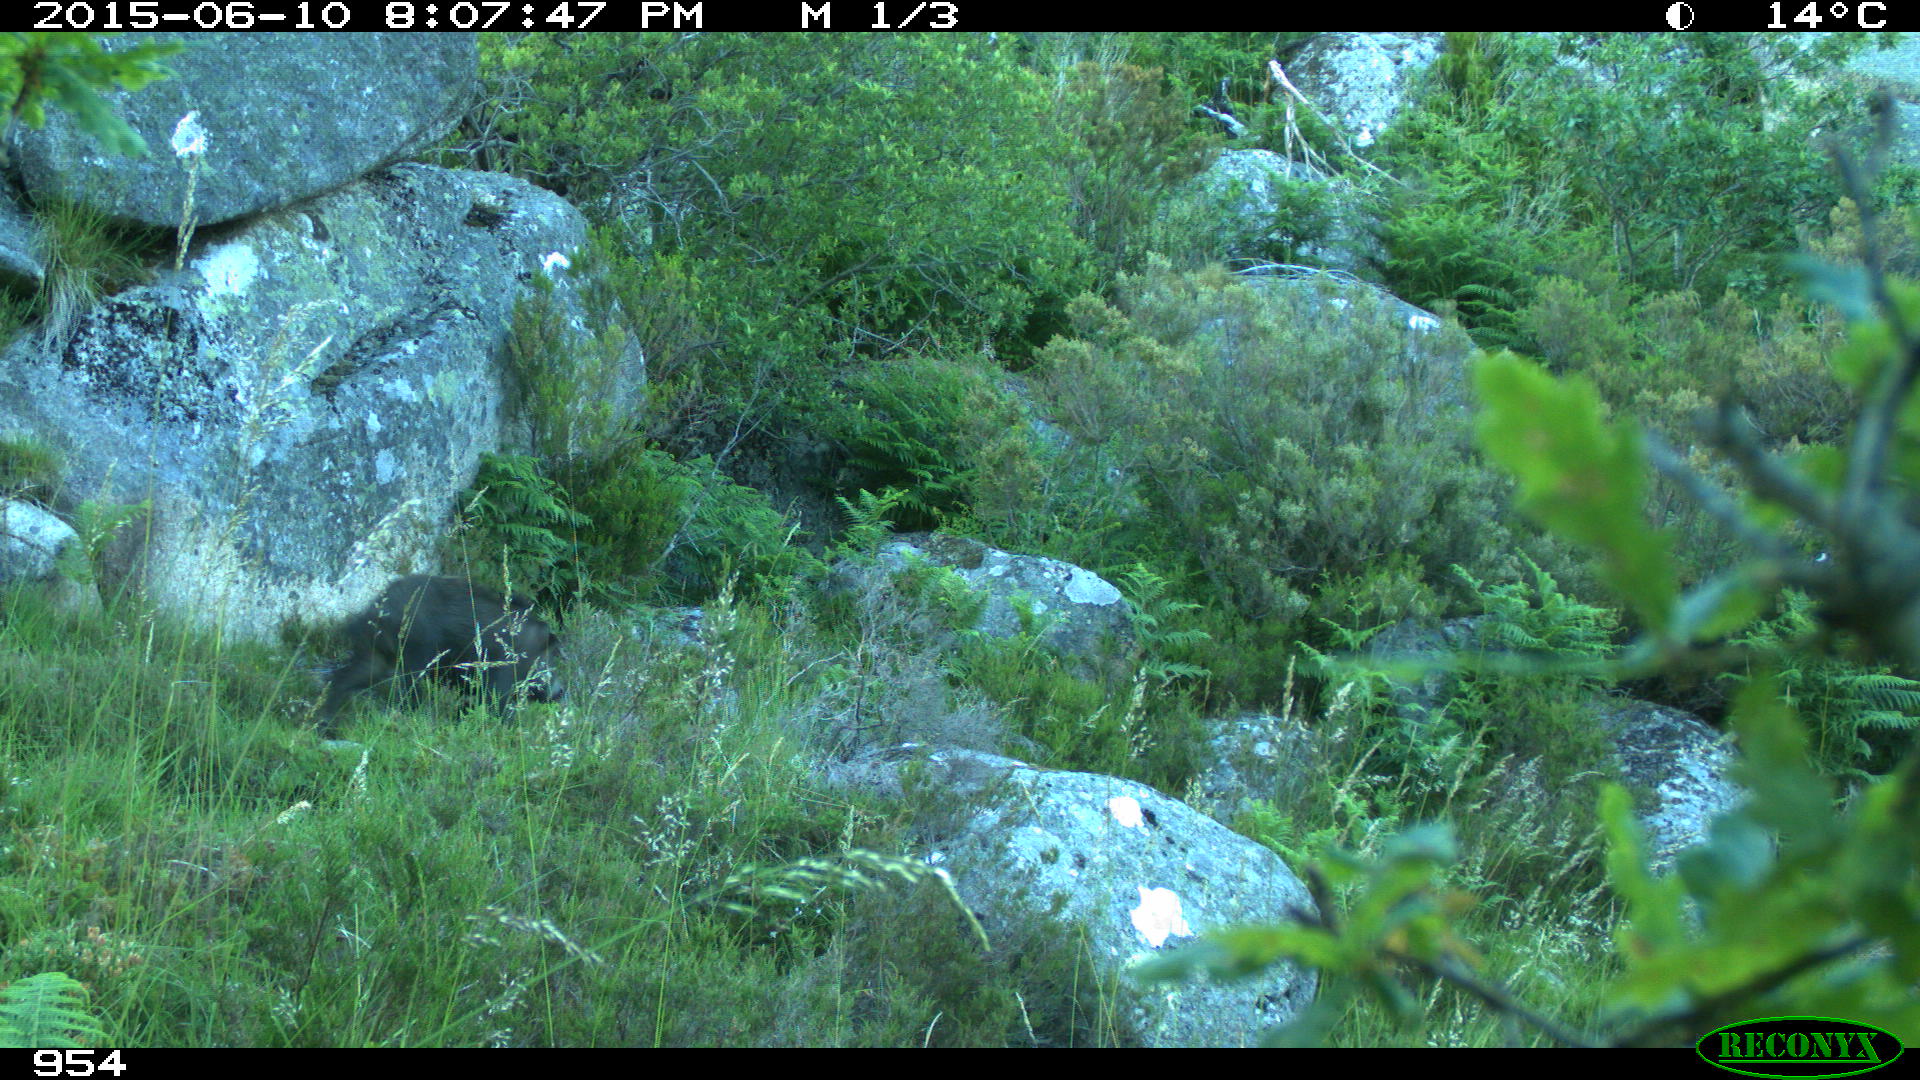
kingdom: Animalia
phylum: Chordata
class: Mammalia
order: Artiodactyla
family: Suidae
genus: Sus
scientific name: Sus scrofa
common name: Wild boar
